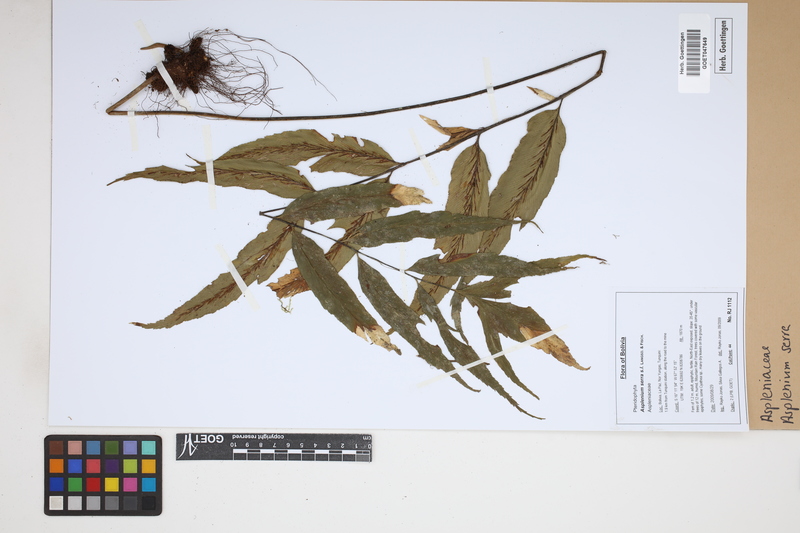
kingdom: Plantae
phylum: Tracheophyta
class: Polypodiopsida
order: Polypodiales
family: Aspleniaceae
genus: Asplenium
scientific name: Asplenium serra
